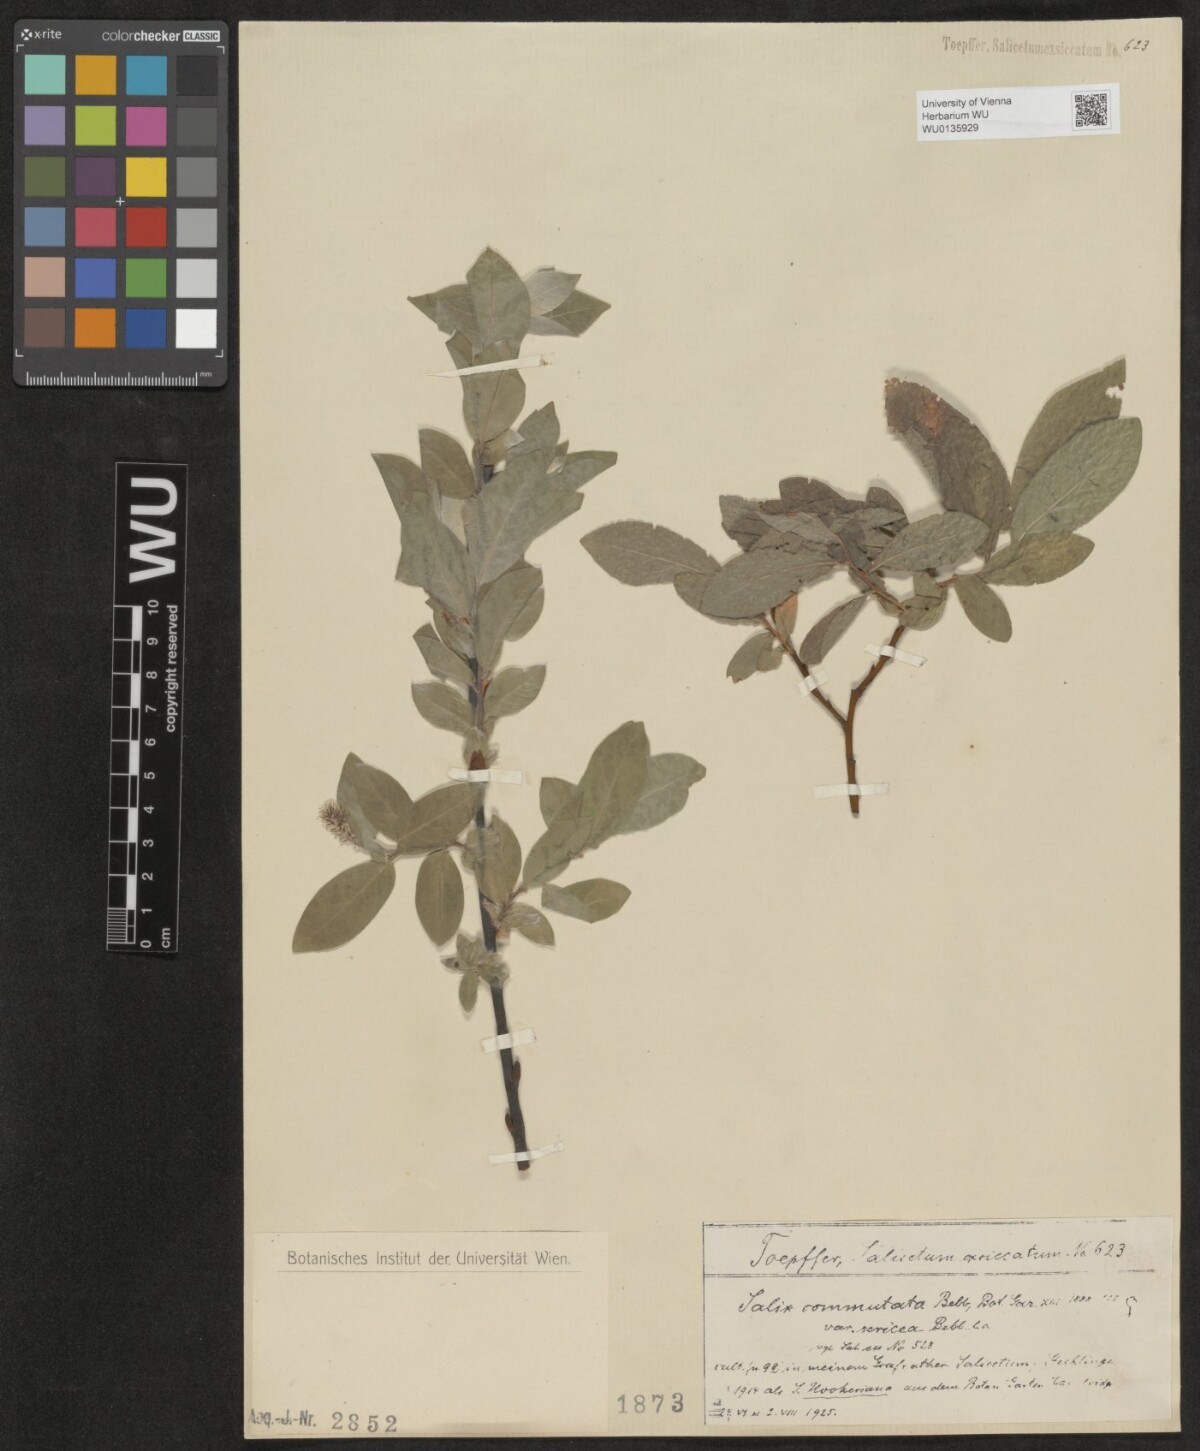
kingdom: Plantae
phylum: Tracheophyta
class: Magnoliopsida
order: Malpighiales
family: Salicaceae
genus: Salix
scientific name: Salix commutata
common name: Under-green willow
